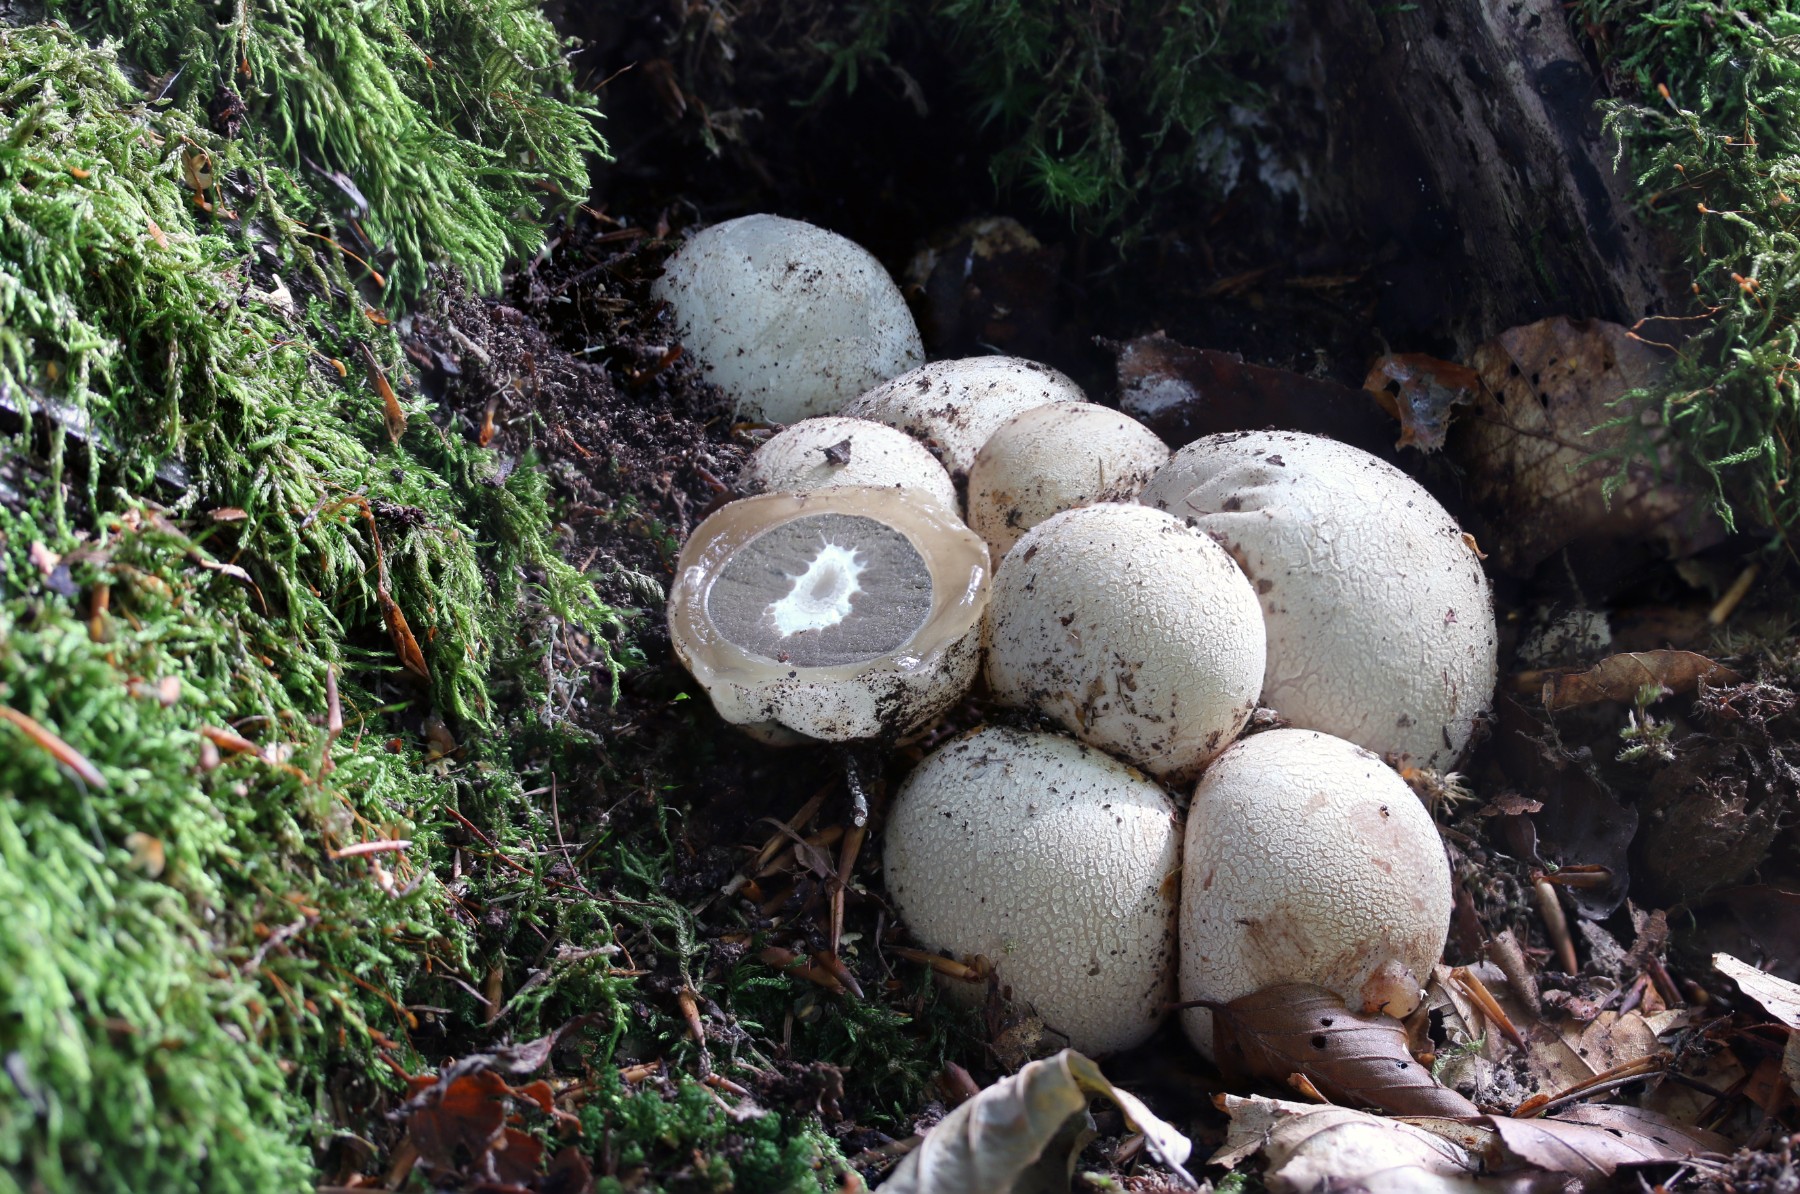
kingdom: Fungi
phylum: Basidiomycota
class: Agaricomycetes
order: Phallales
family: Phallaceae
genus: Phallus
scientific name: Phallus impudicus
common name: almindelig stinksvamp
